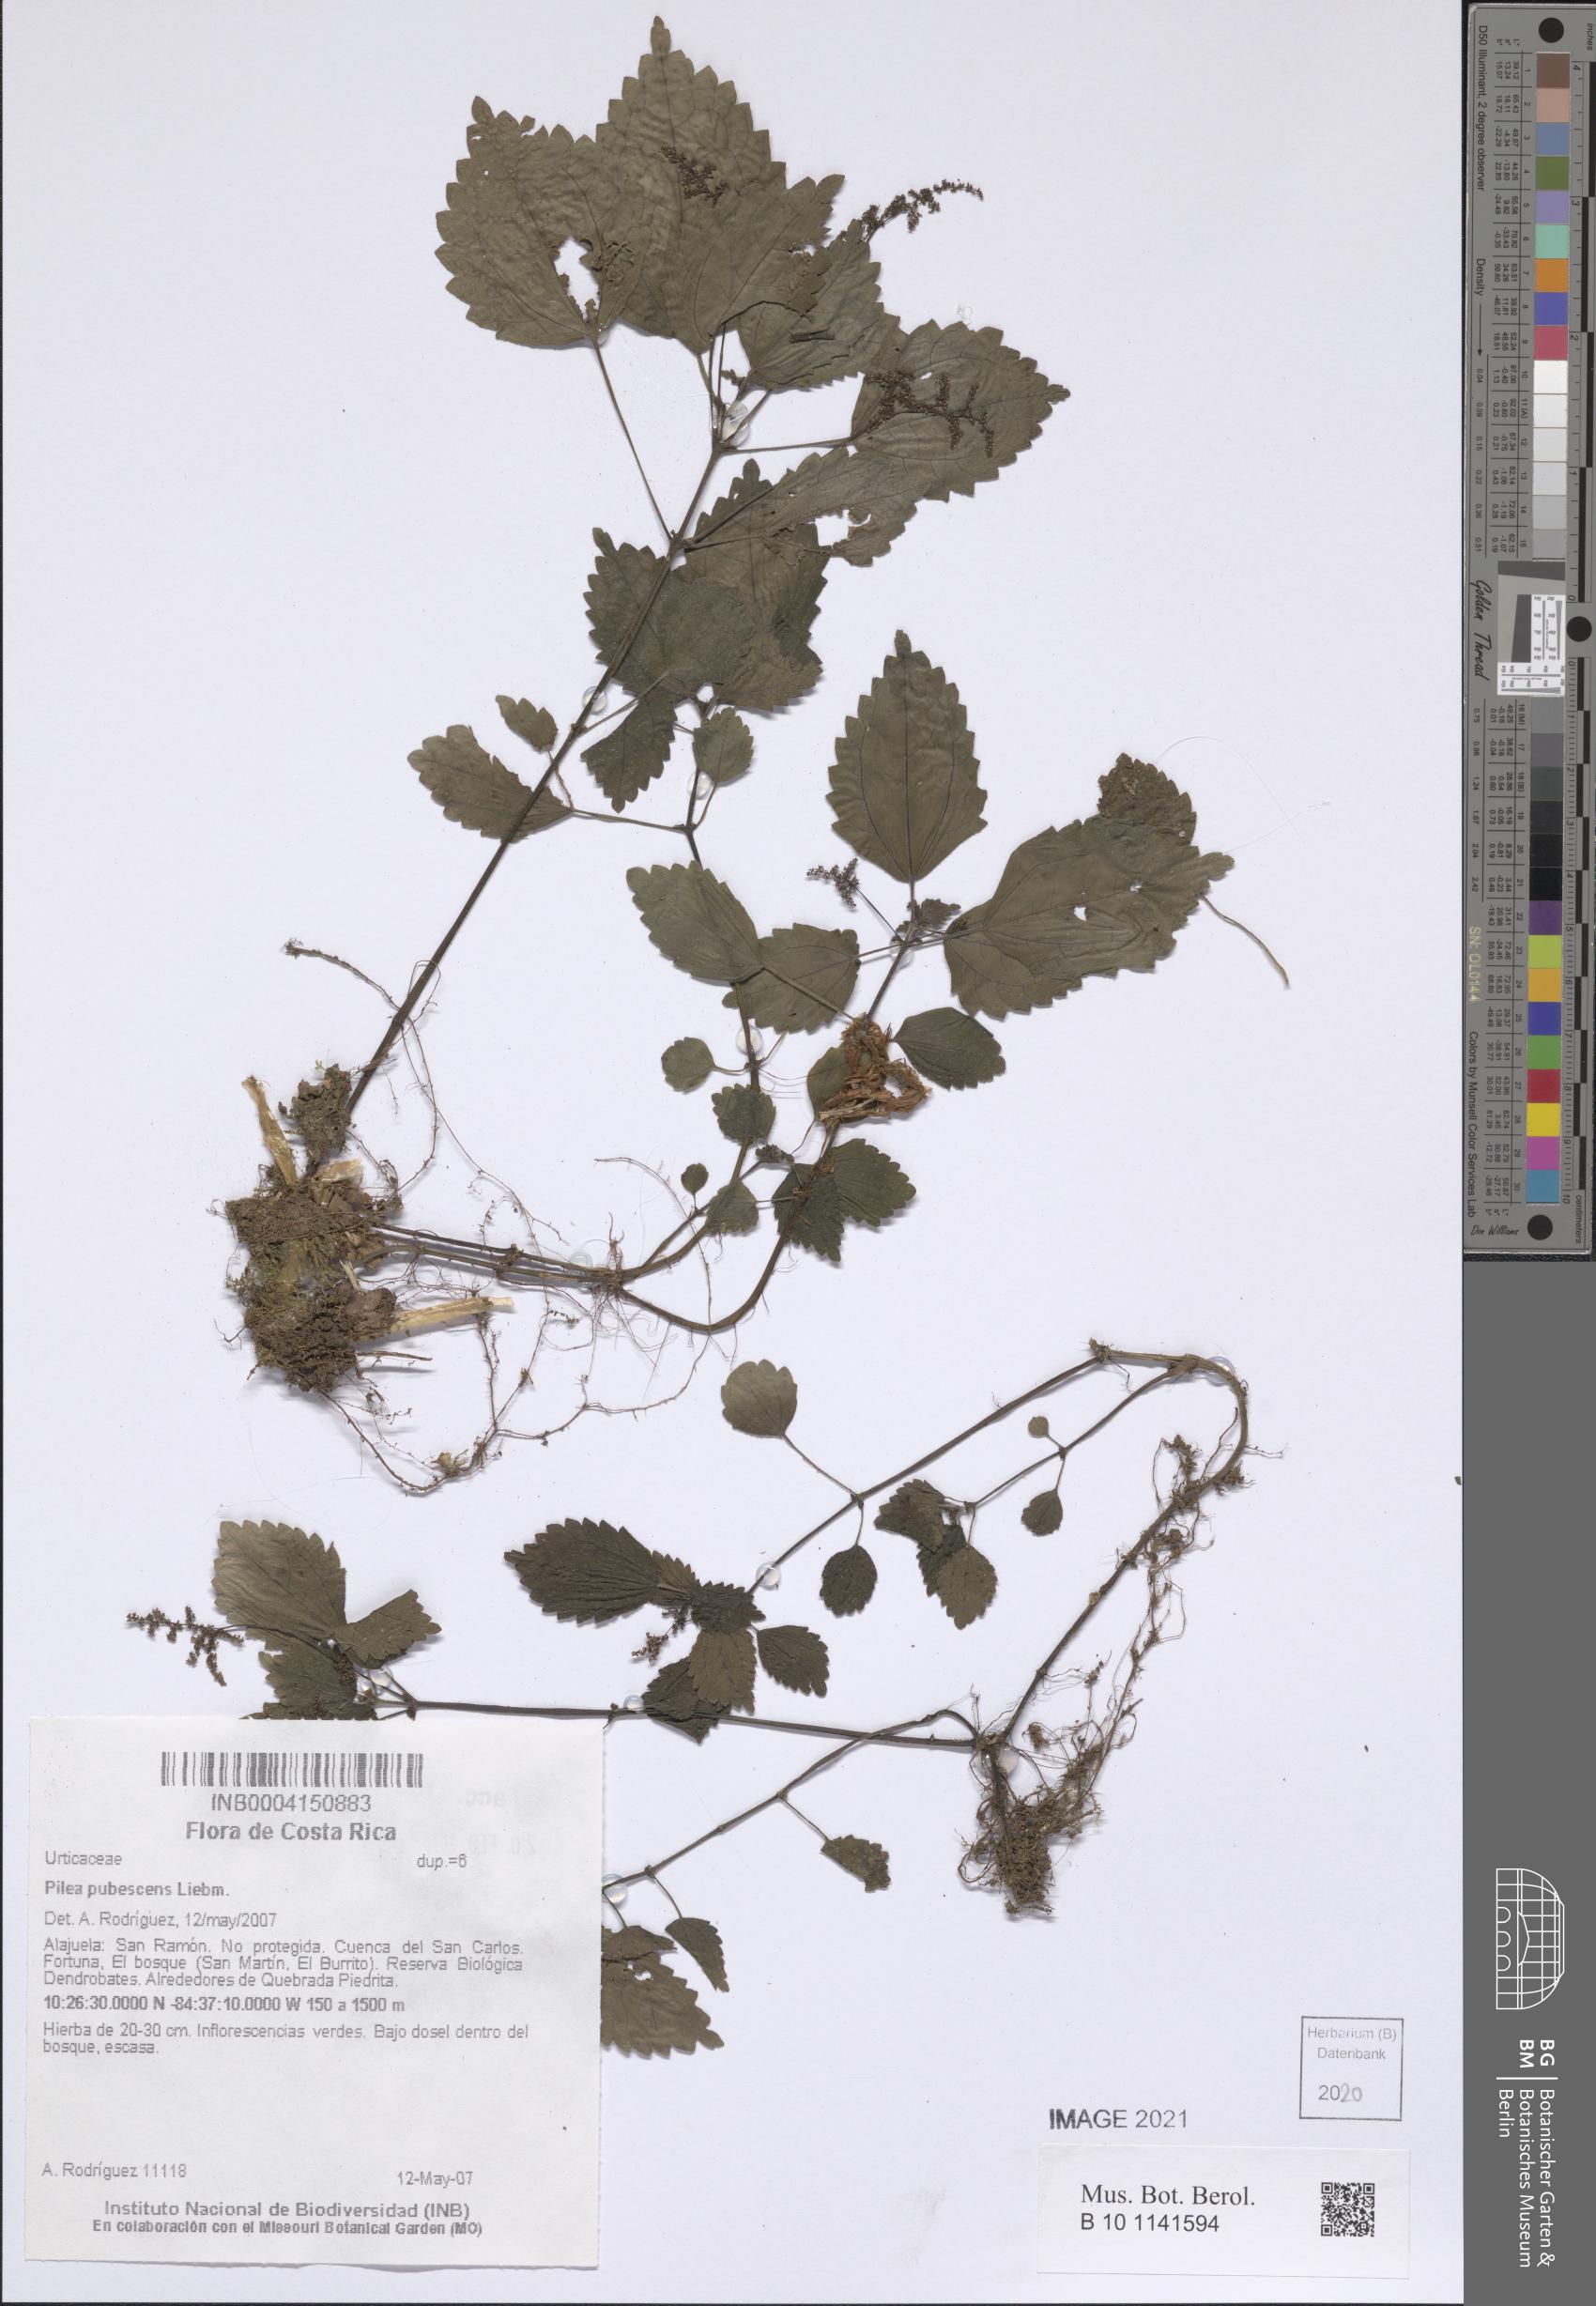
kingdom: Plantae
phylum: Tracheophyta
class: Magnoliopsida
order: Rosales
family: Urticaceae
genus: Pilea
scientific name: Pilea pubescens
